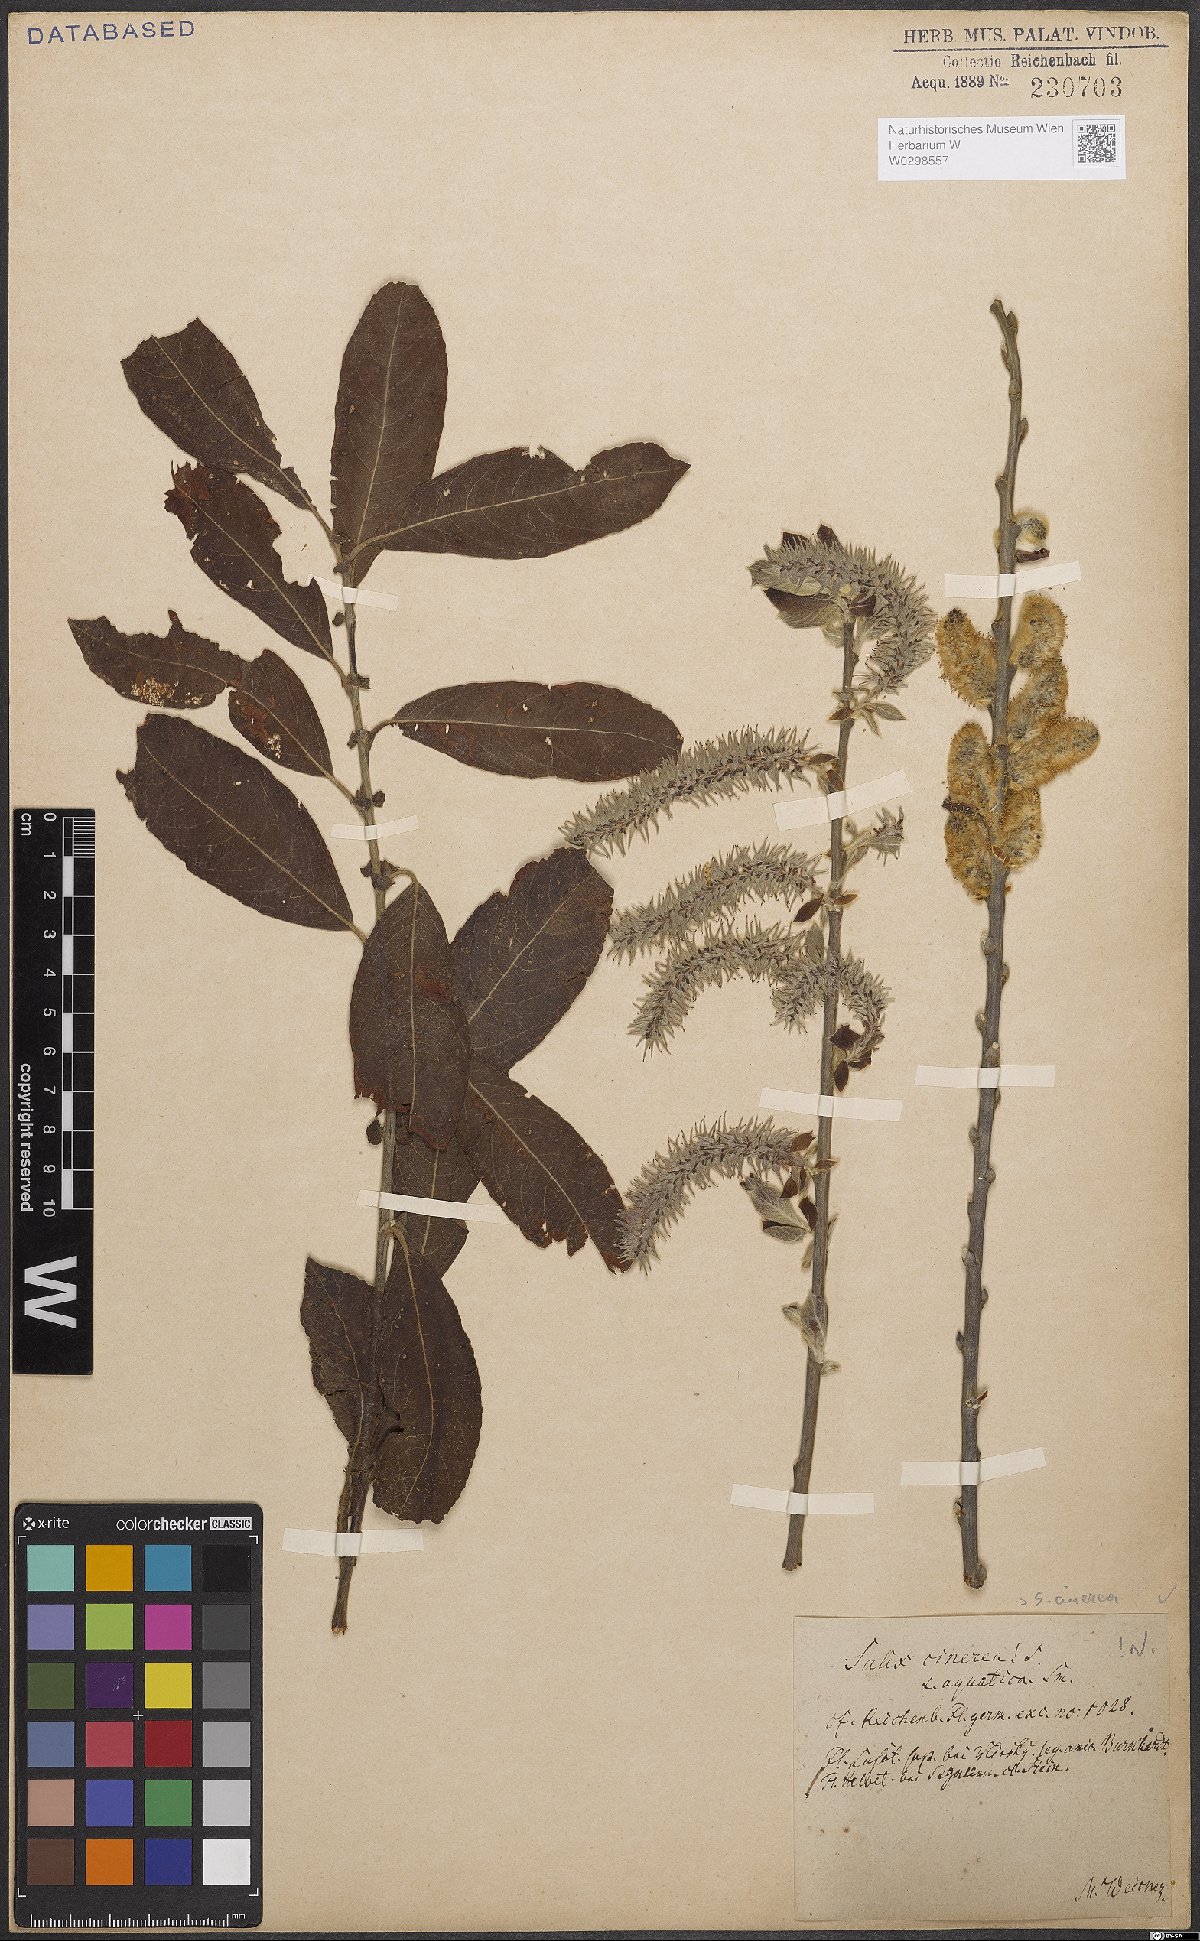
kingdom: Plantae
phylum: Tracheophyta
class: Magnoliopsida
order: Malpighiales
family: Salicaceae
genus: Salix
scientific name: Salix cinerea
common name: Common sallow
